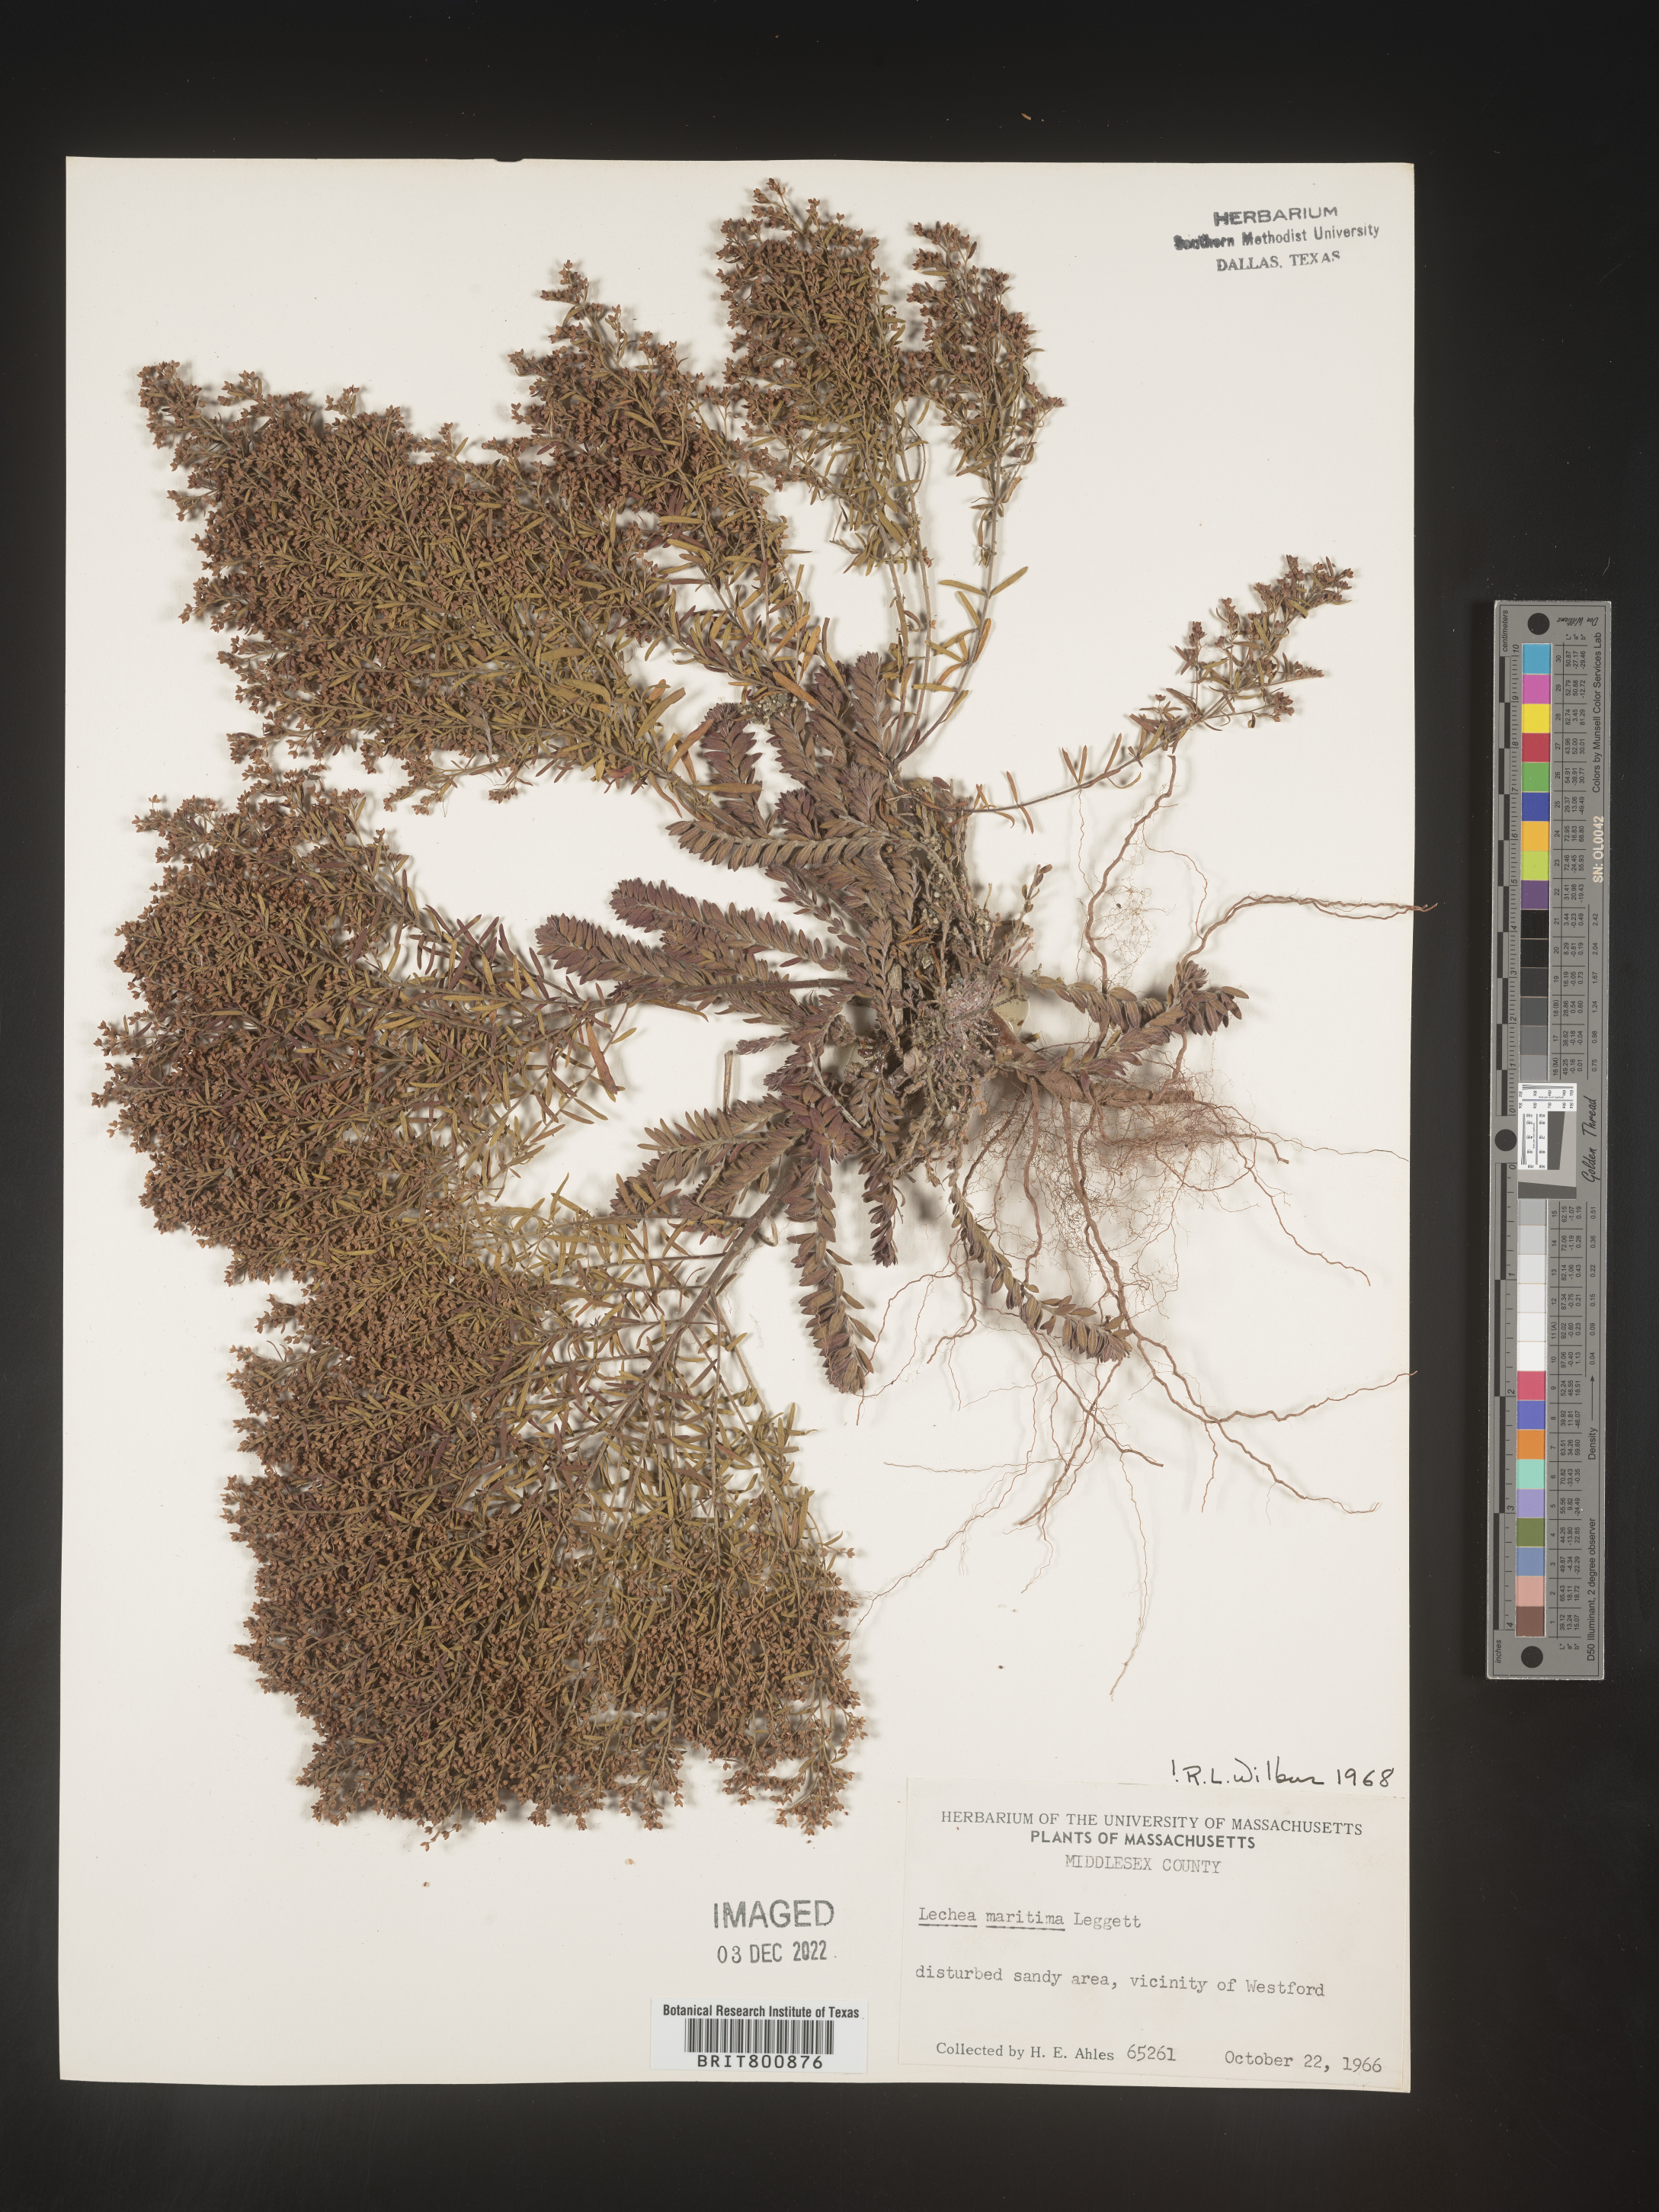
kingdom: Plantae
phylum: Tracheophyta
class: Magnoliopsida
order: Malvales
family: Cistaceae
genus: Lechea
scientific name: Lechea maritima
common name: Beach pinweed
